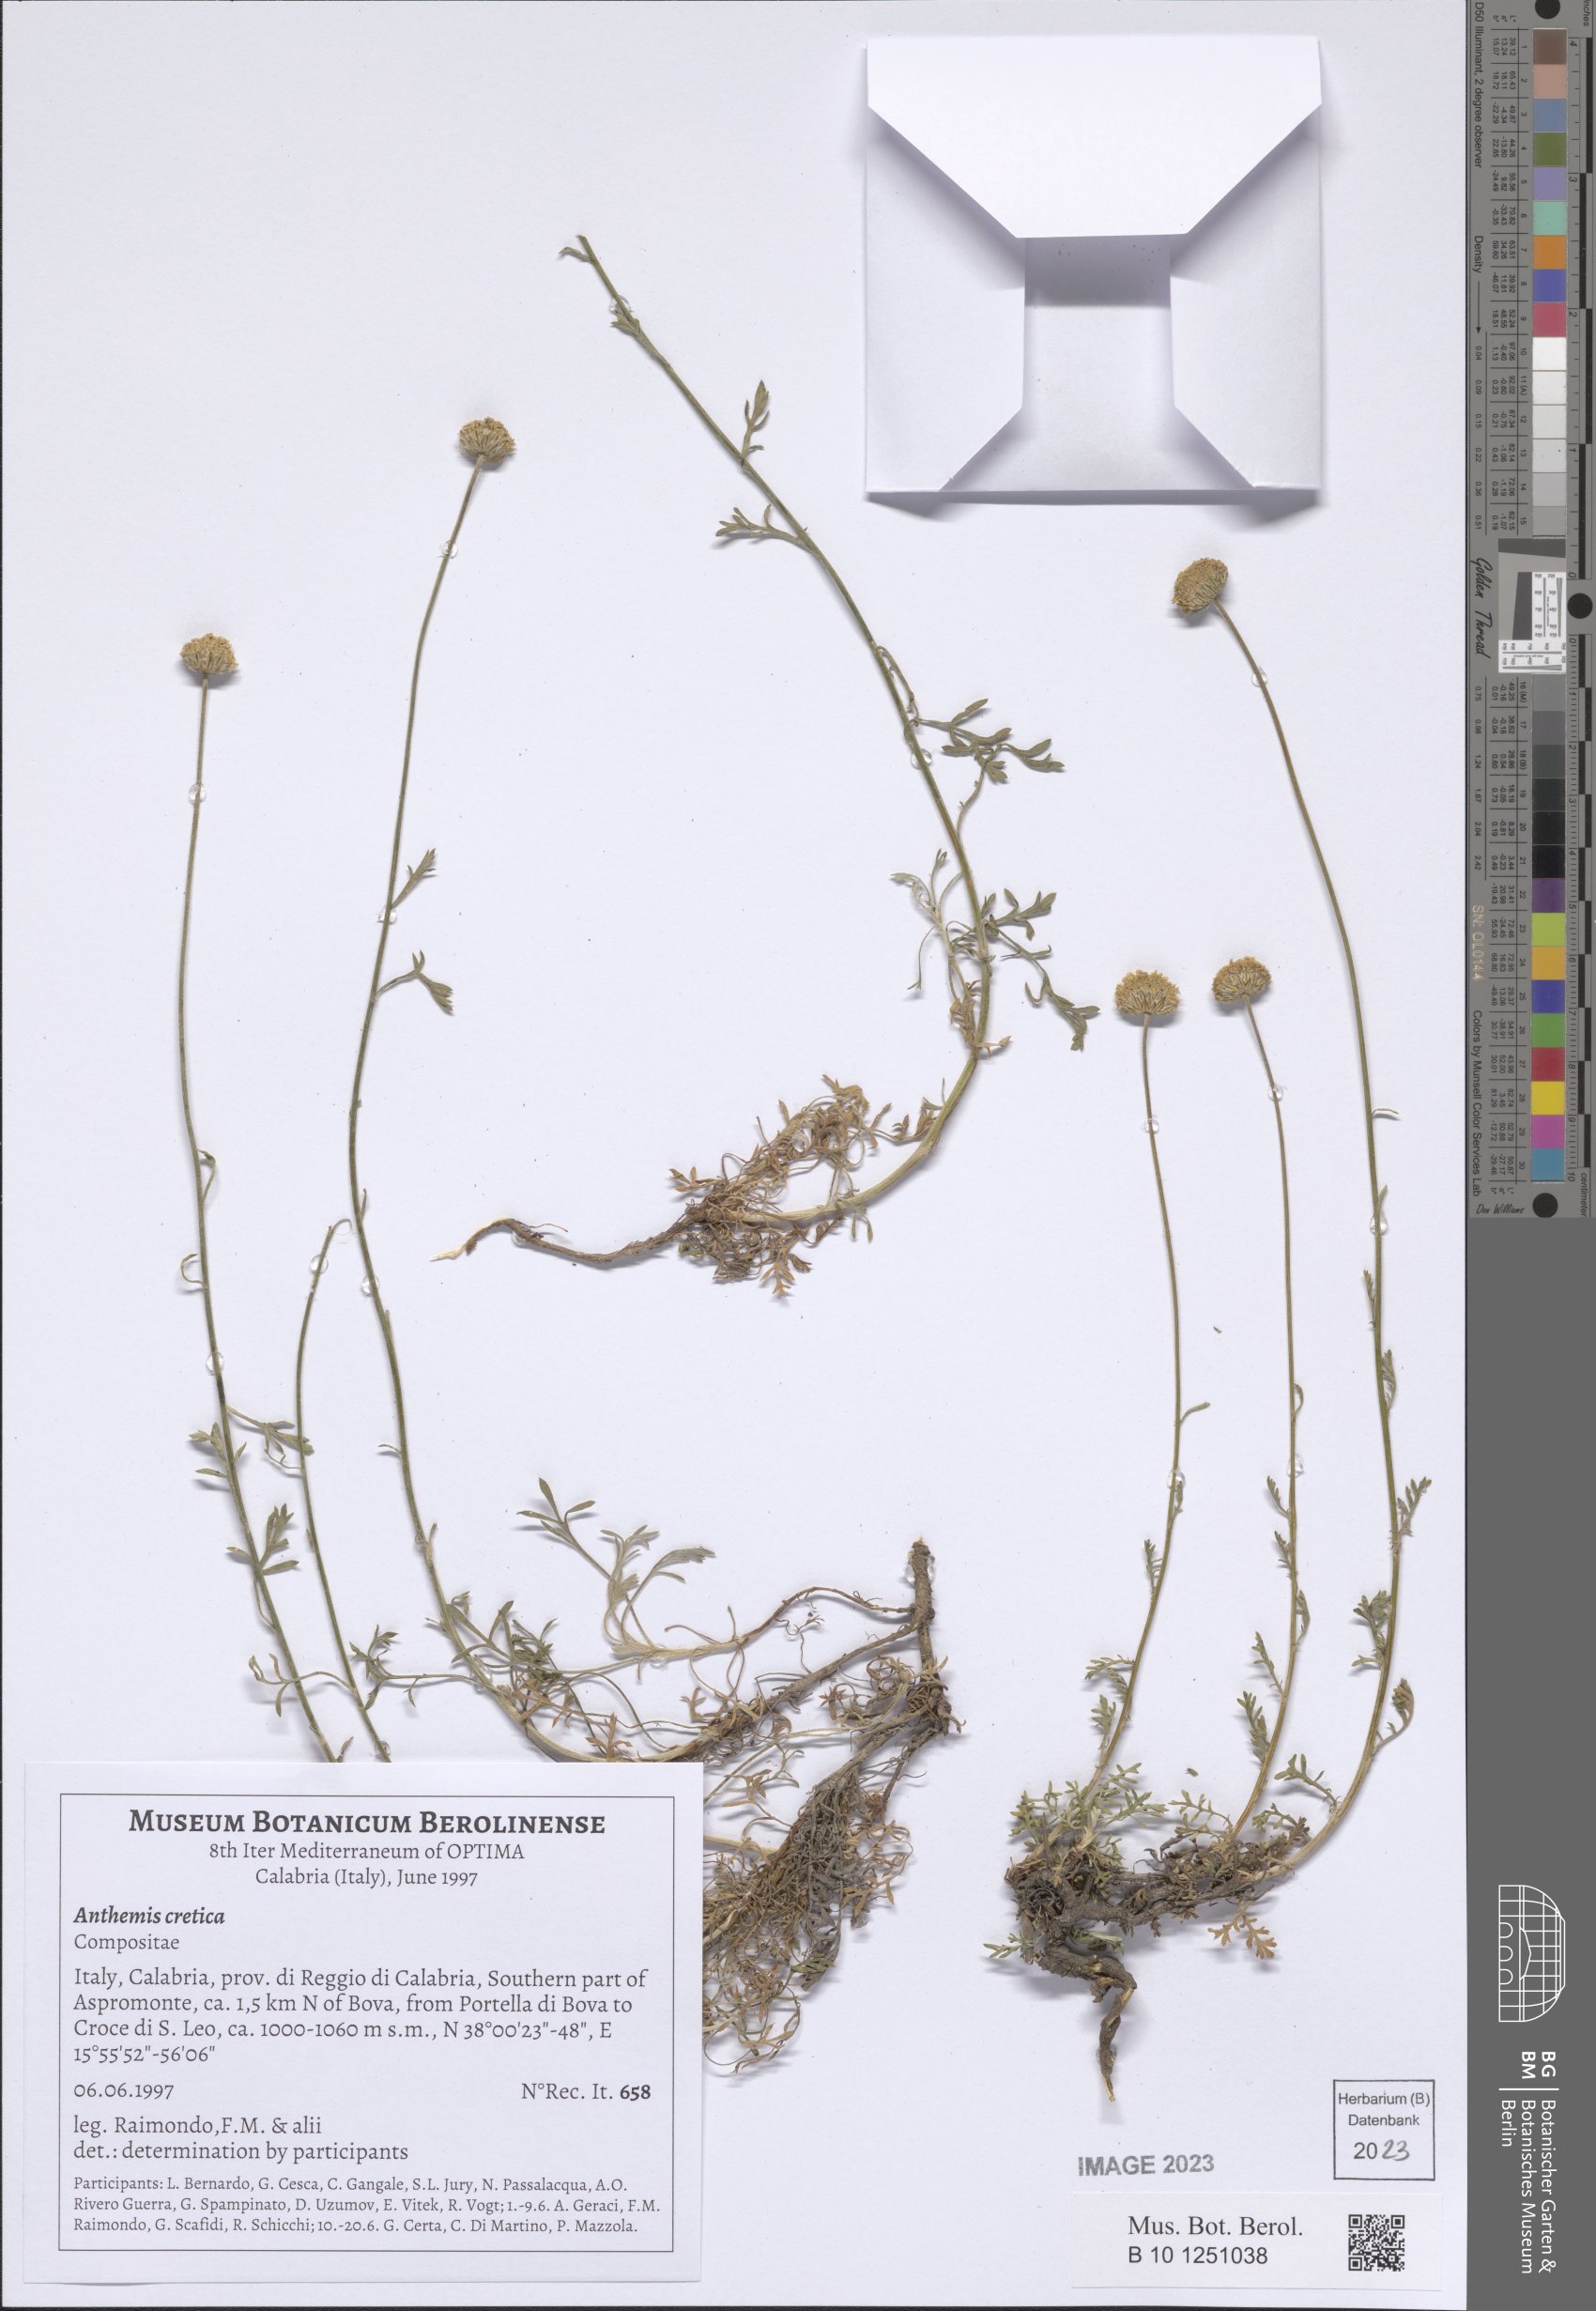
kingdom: Plantae
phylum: Tracheophyta
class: Magnoliopsida
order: Asterales
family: Asteraceae
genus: Anthemis
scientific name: Anthemis cretica
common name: Mountain dog-daisy
